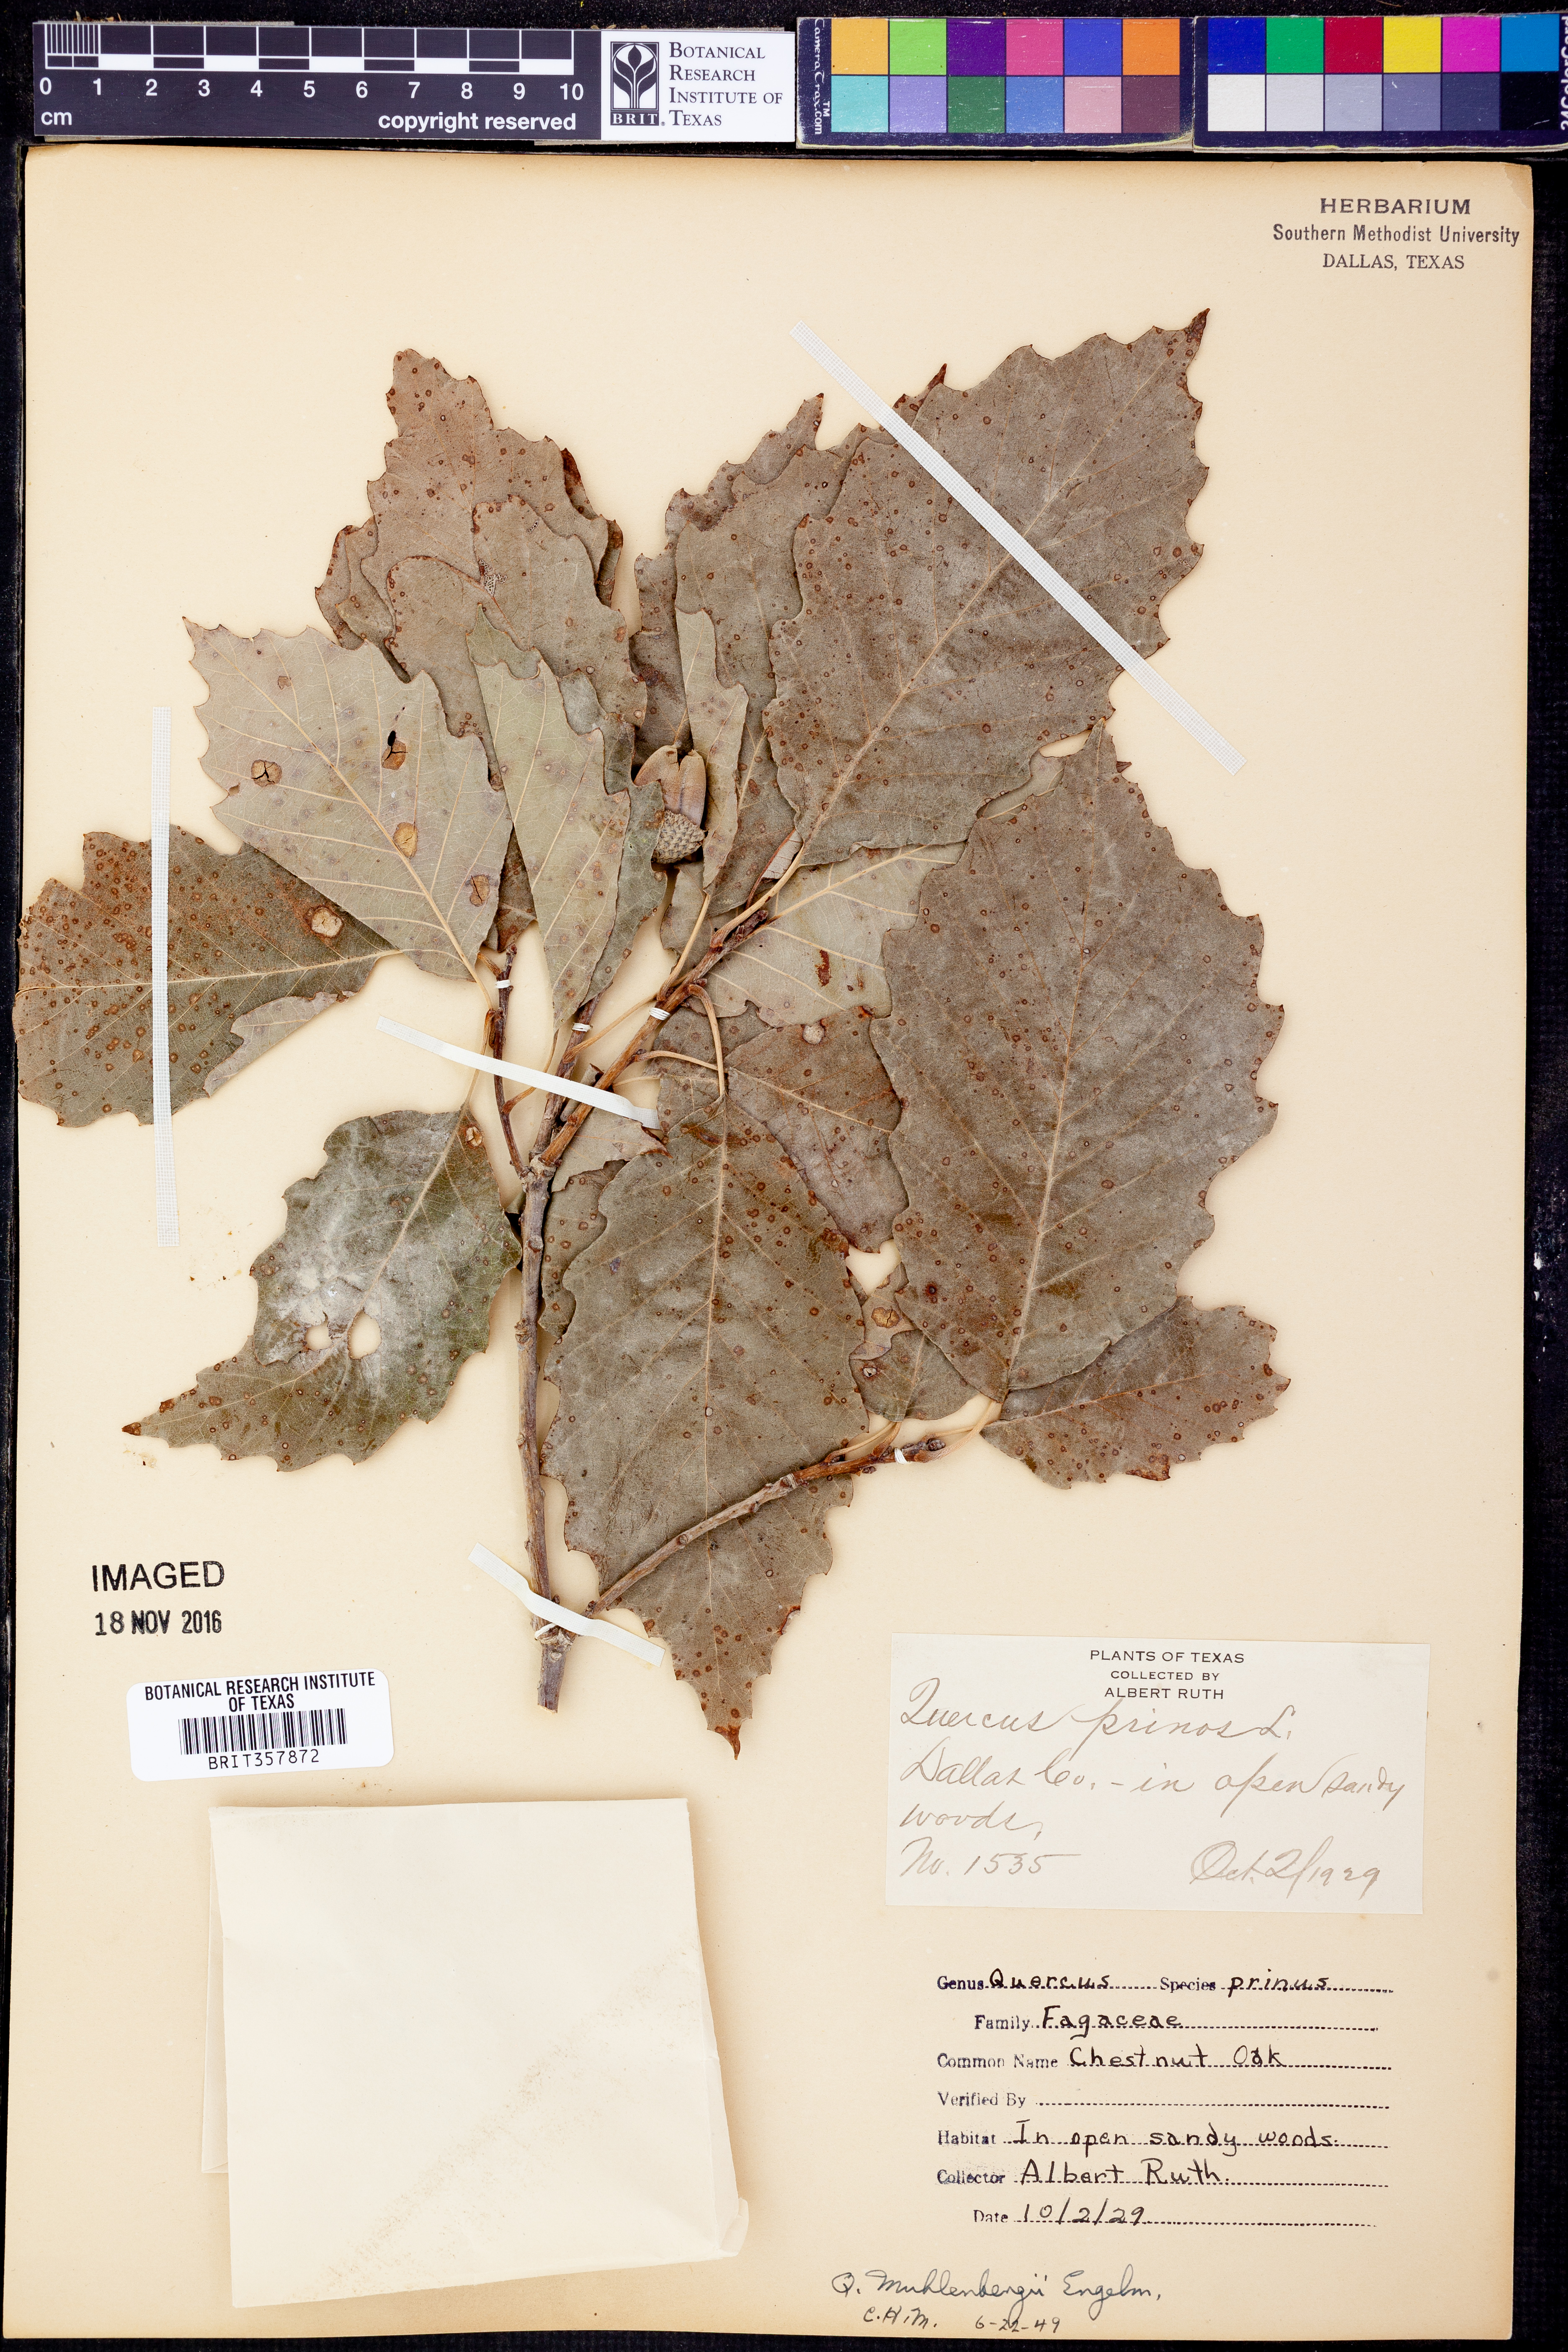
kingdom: Plantae
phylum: Tracheophyta
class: Magnoliopsida
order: Fagales
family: Fagaceae
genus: Quercus
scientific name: Quercus muehlenbergii
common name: Chinkapin oak
